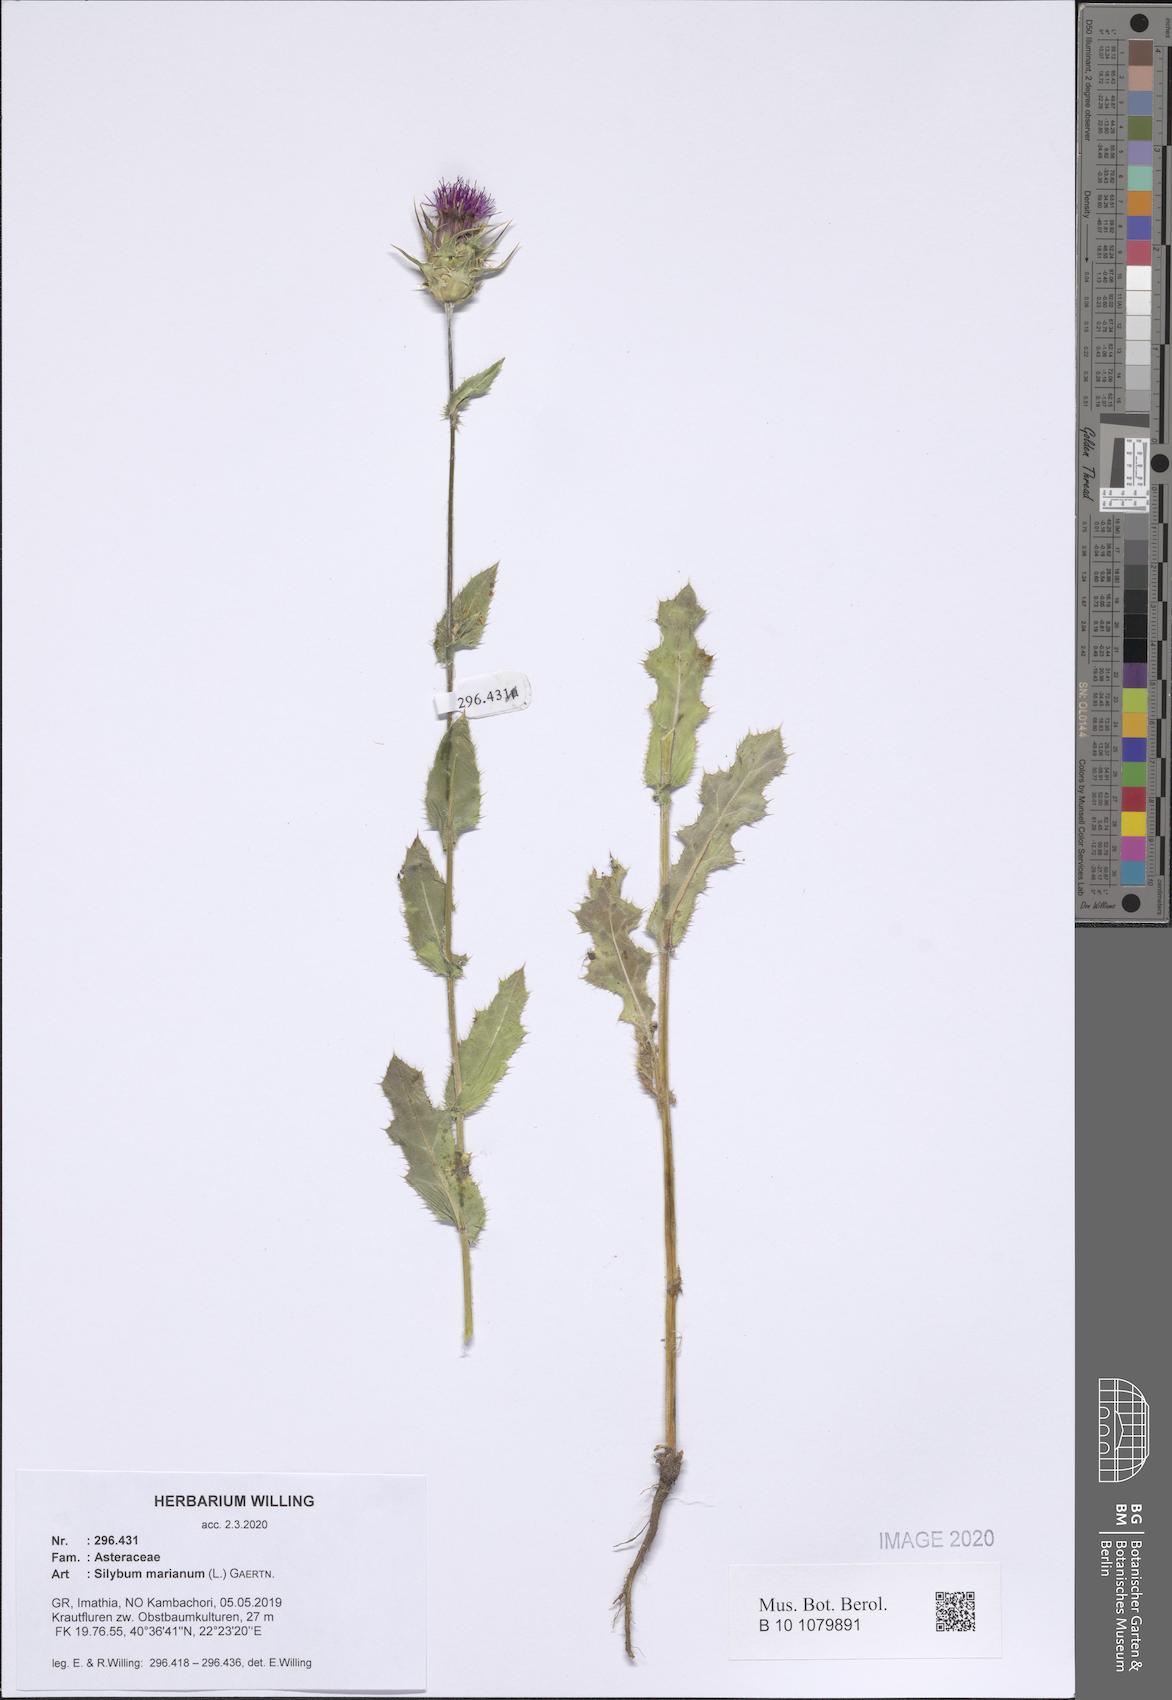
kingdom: Plantae
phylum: Tracheophyta
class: Magnoliopsida
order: Asterales
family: Asteraceae
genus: Silybum
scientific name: Silybum marianum
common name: Milk thistle
